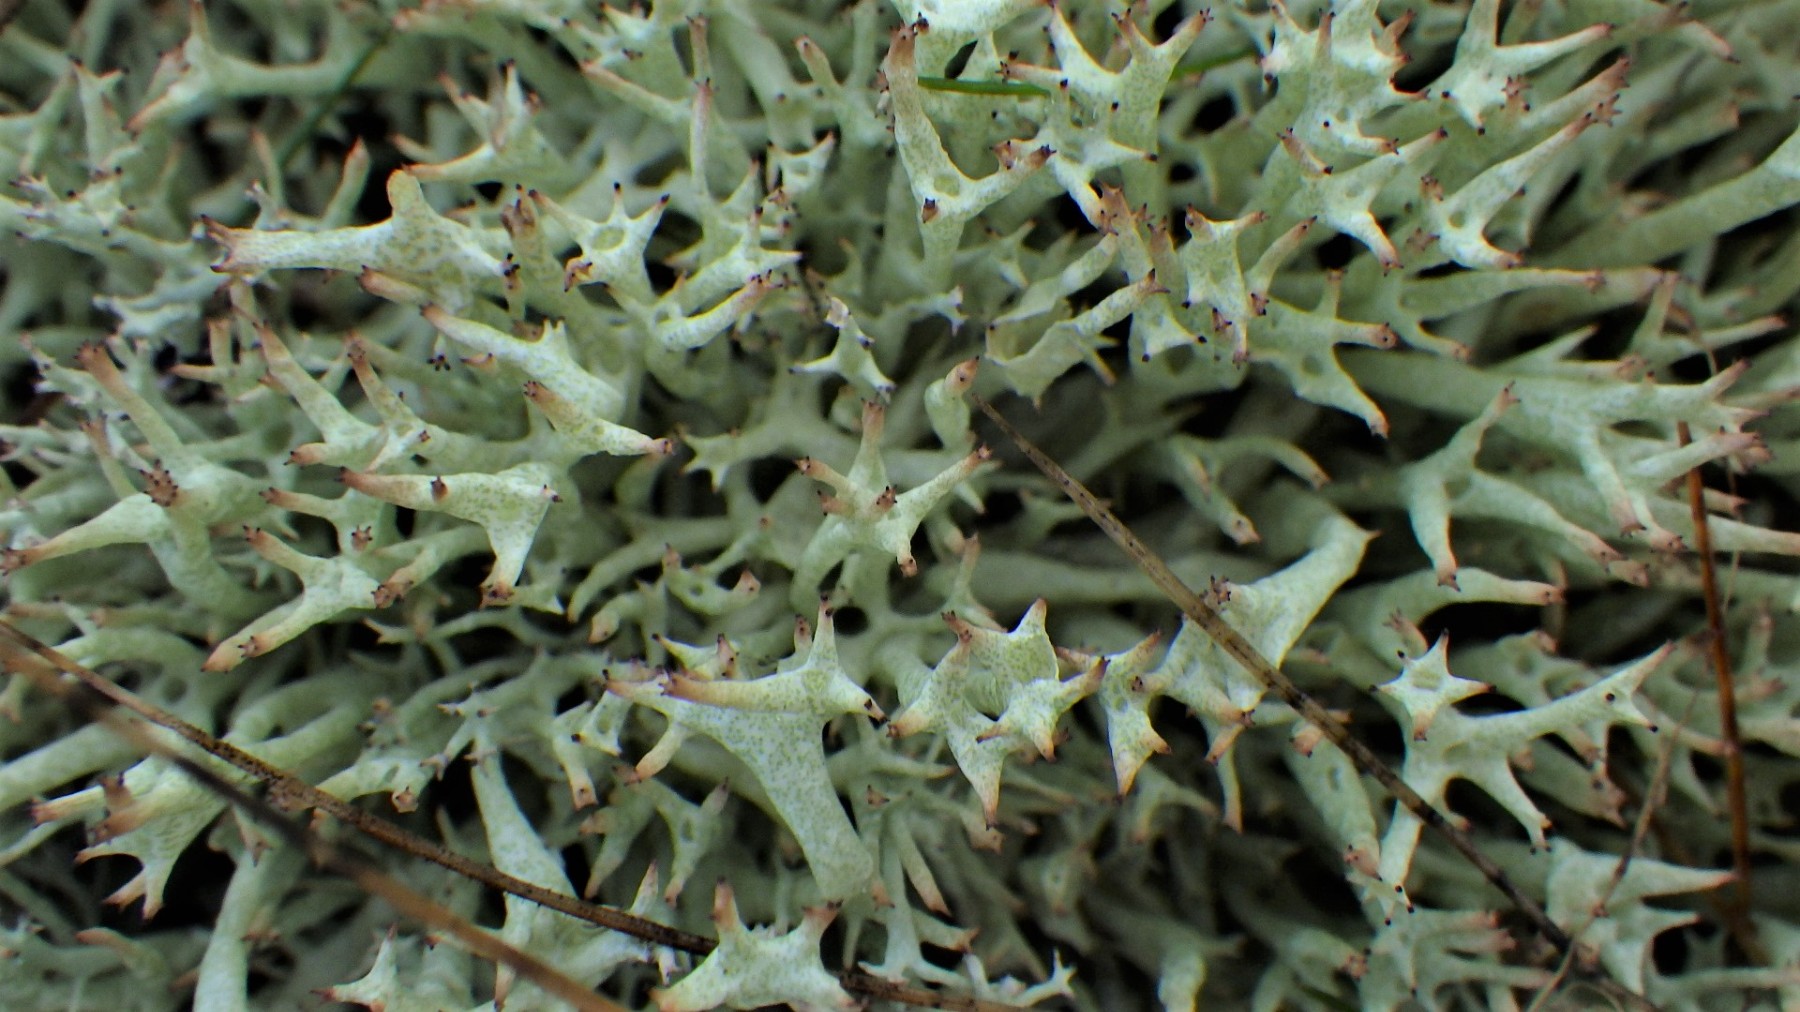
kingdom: Fungi
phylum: Ascomycota
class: Lecanoromycetes
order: Lecanorales
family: Cladoniaceae
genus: Cladonia
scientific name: Cladonia uncialis
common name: pigget bægerlav
